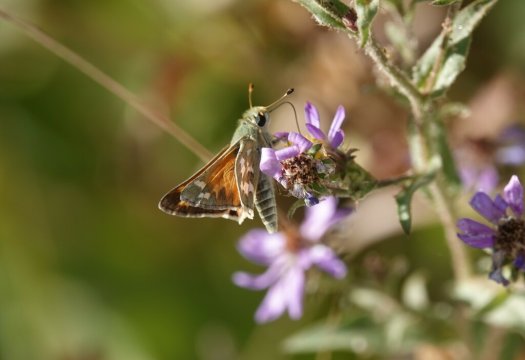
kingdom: Animalia
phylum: Arthropoda
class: Insecta
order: Lepidoptera
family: Hesperiidae
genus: Hesperia
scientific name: Hesperia comma
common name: Western Branded Skipper
